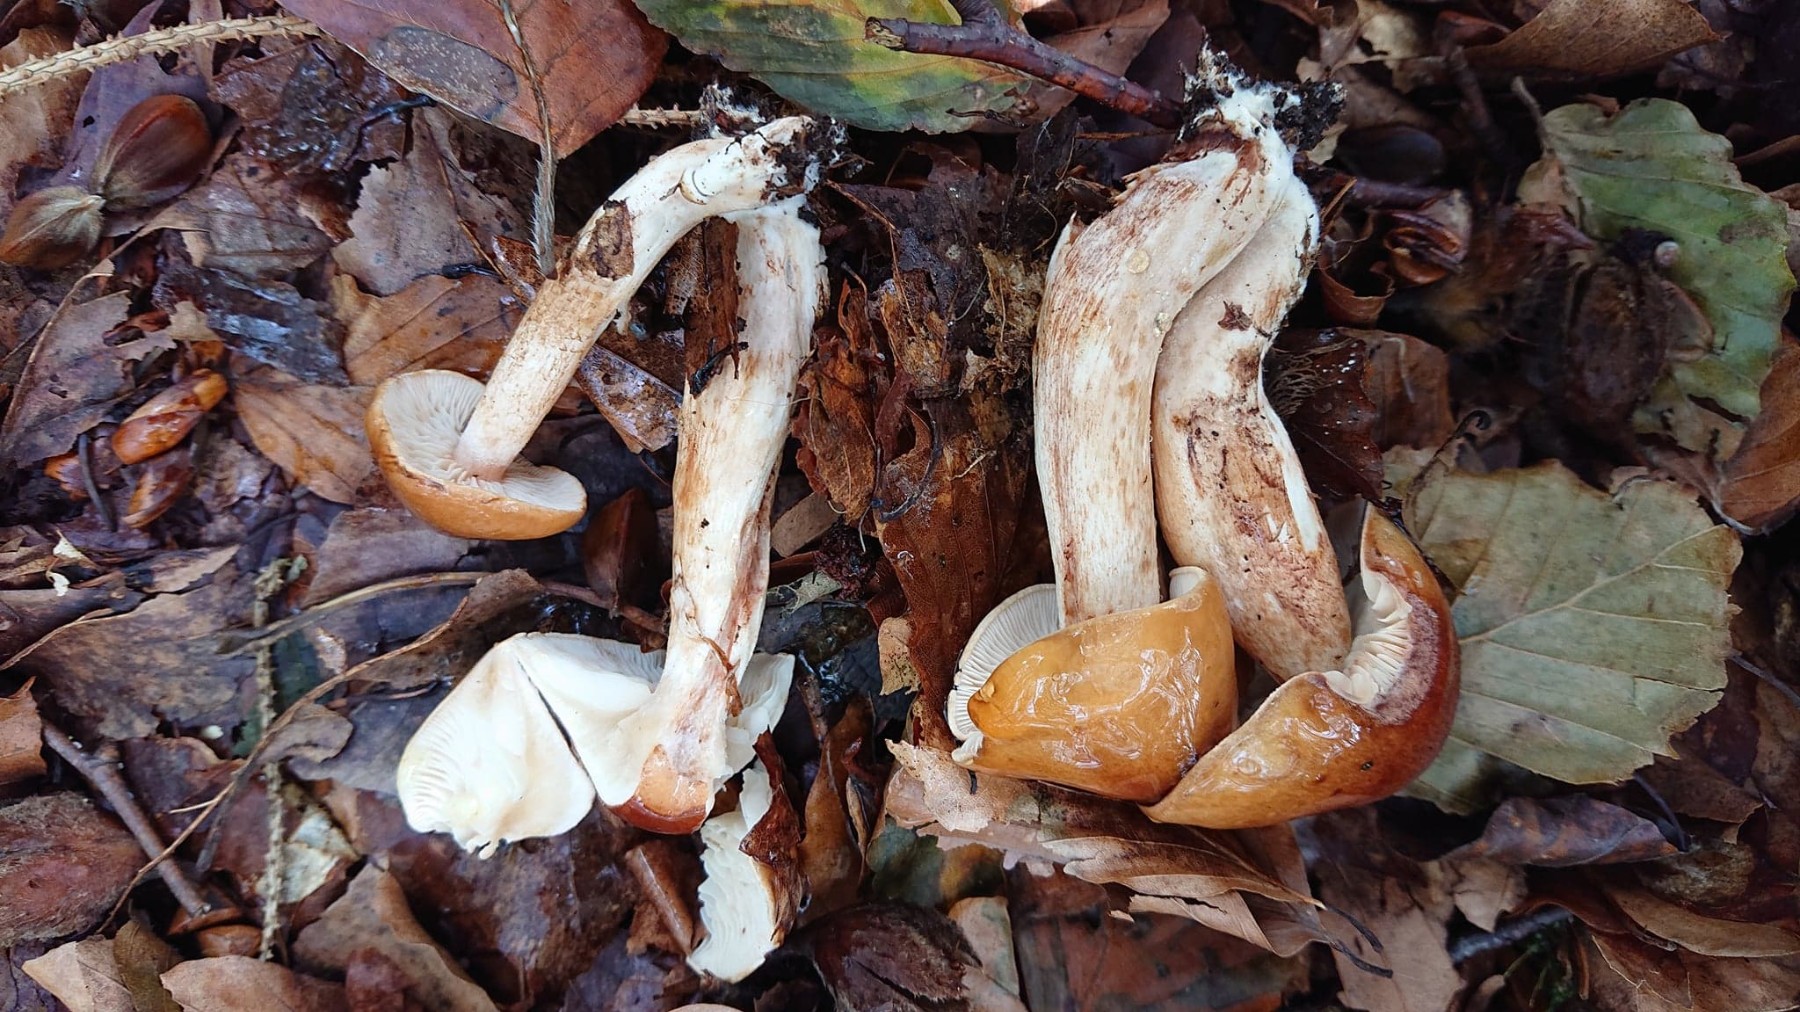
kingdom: Fungi
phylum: Basidiomycota
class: Agaricomycetes
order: Agaricales
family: Tricholomataceae
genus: Tricholoma
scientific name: Tricholoma ustale
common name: sveden ridderhat
